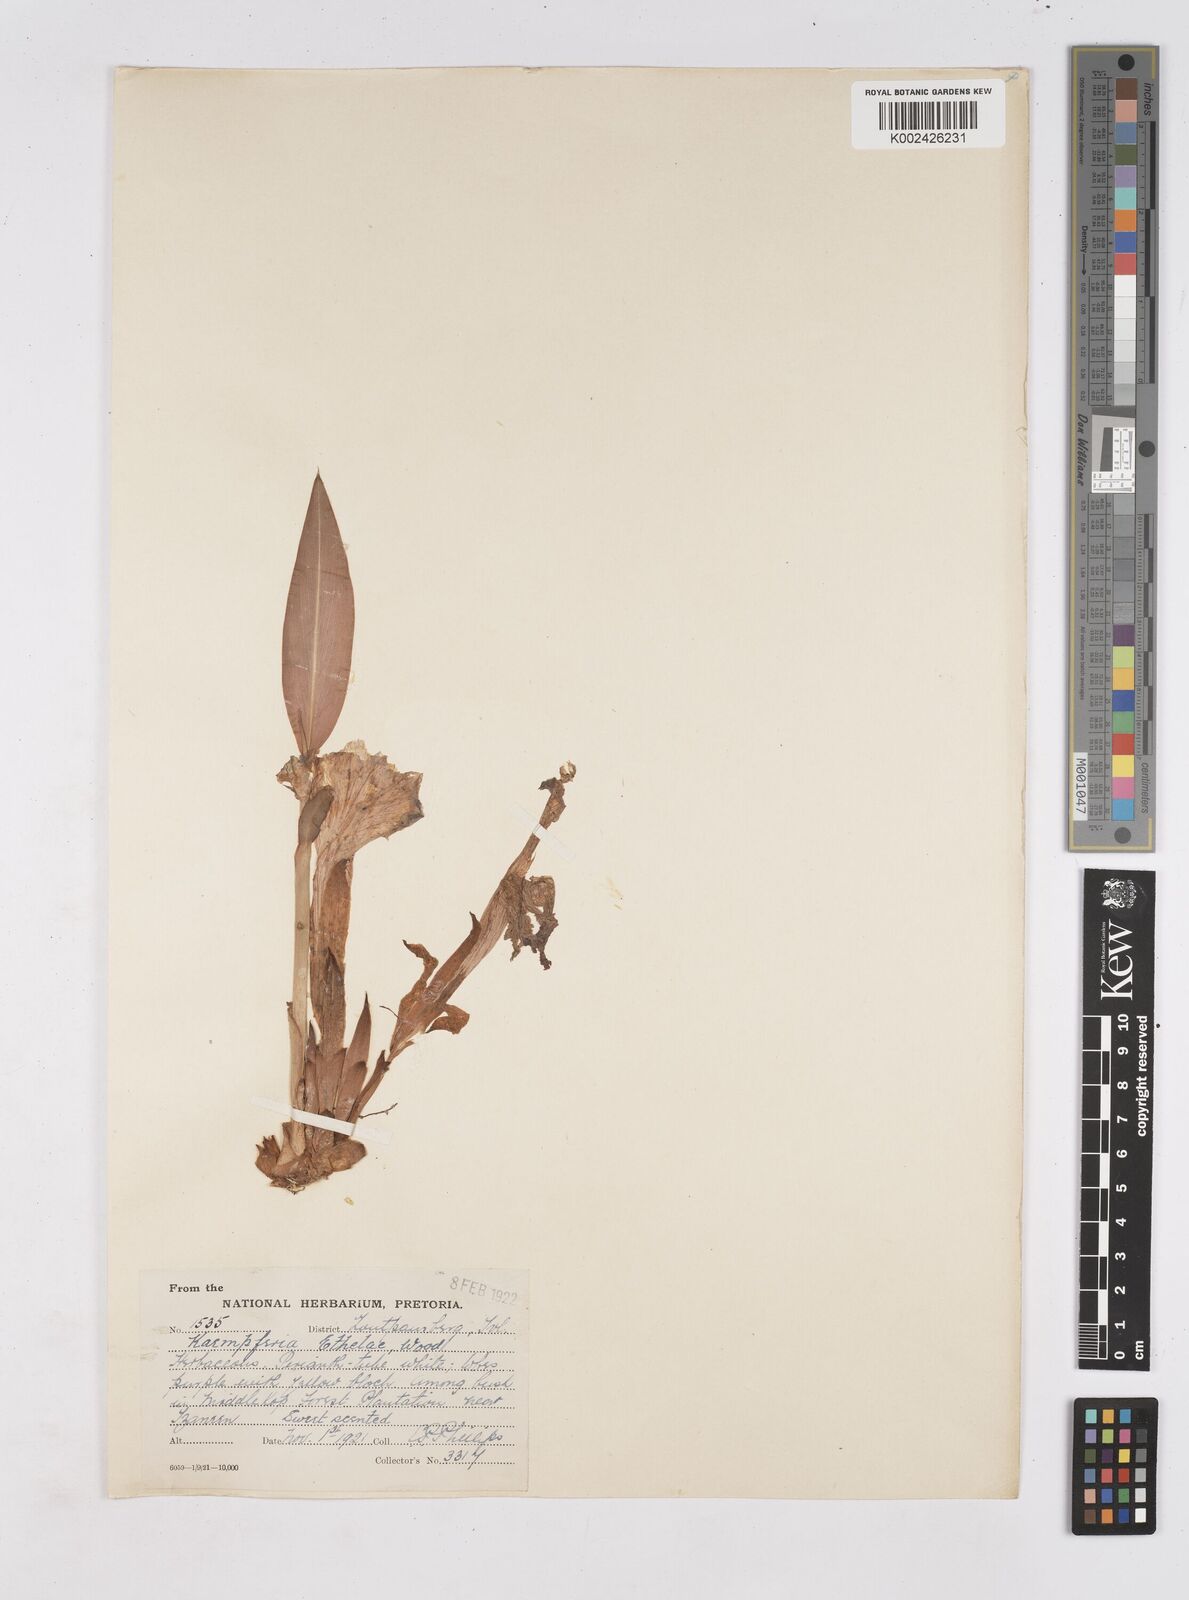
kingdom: Plantae
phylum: Tracheophyta
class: Liliopsida
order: Zingiberales
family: Zingiberaceae
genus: Siphonochilus
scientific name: Siphonochilus
